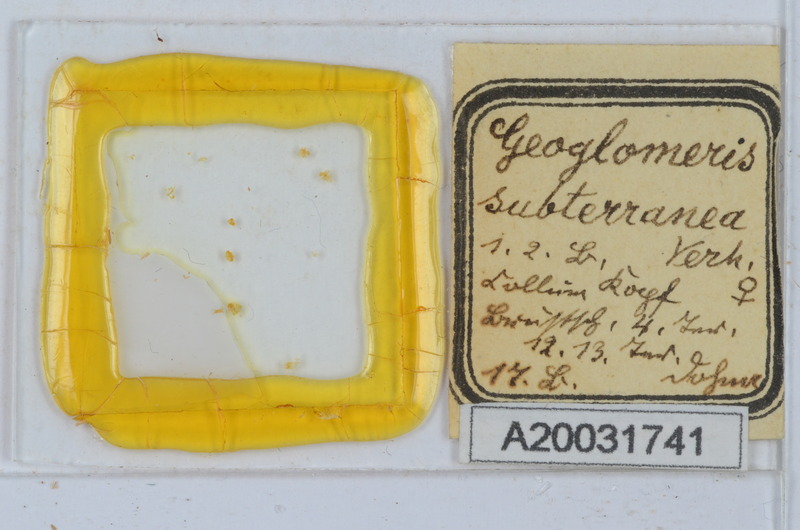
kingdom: Animalia
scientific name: Animalia
